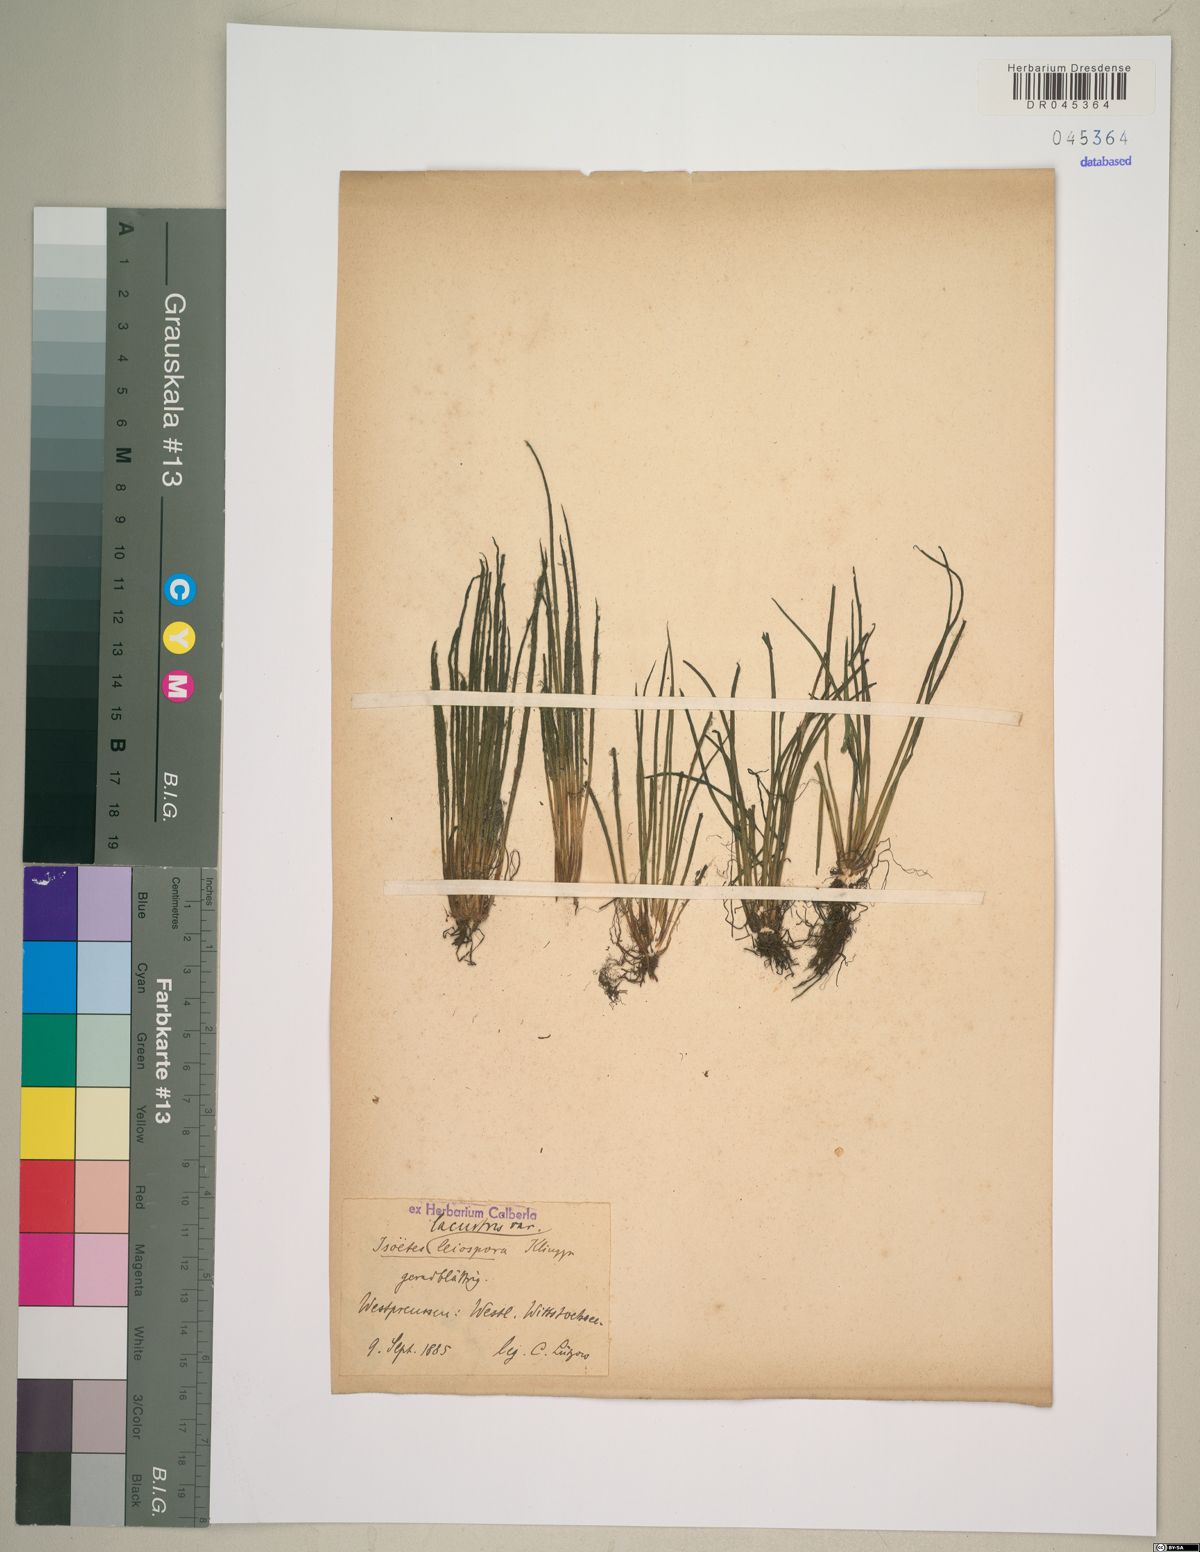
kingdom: Plantae
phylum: Tracheophyta
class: Lycopodiopsida
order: Isoetales
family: Isoetaceae
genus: Isoetes
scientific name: Isoetes lacustris
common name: Common quillwort
